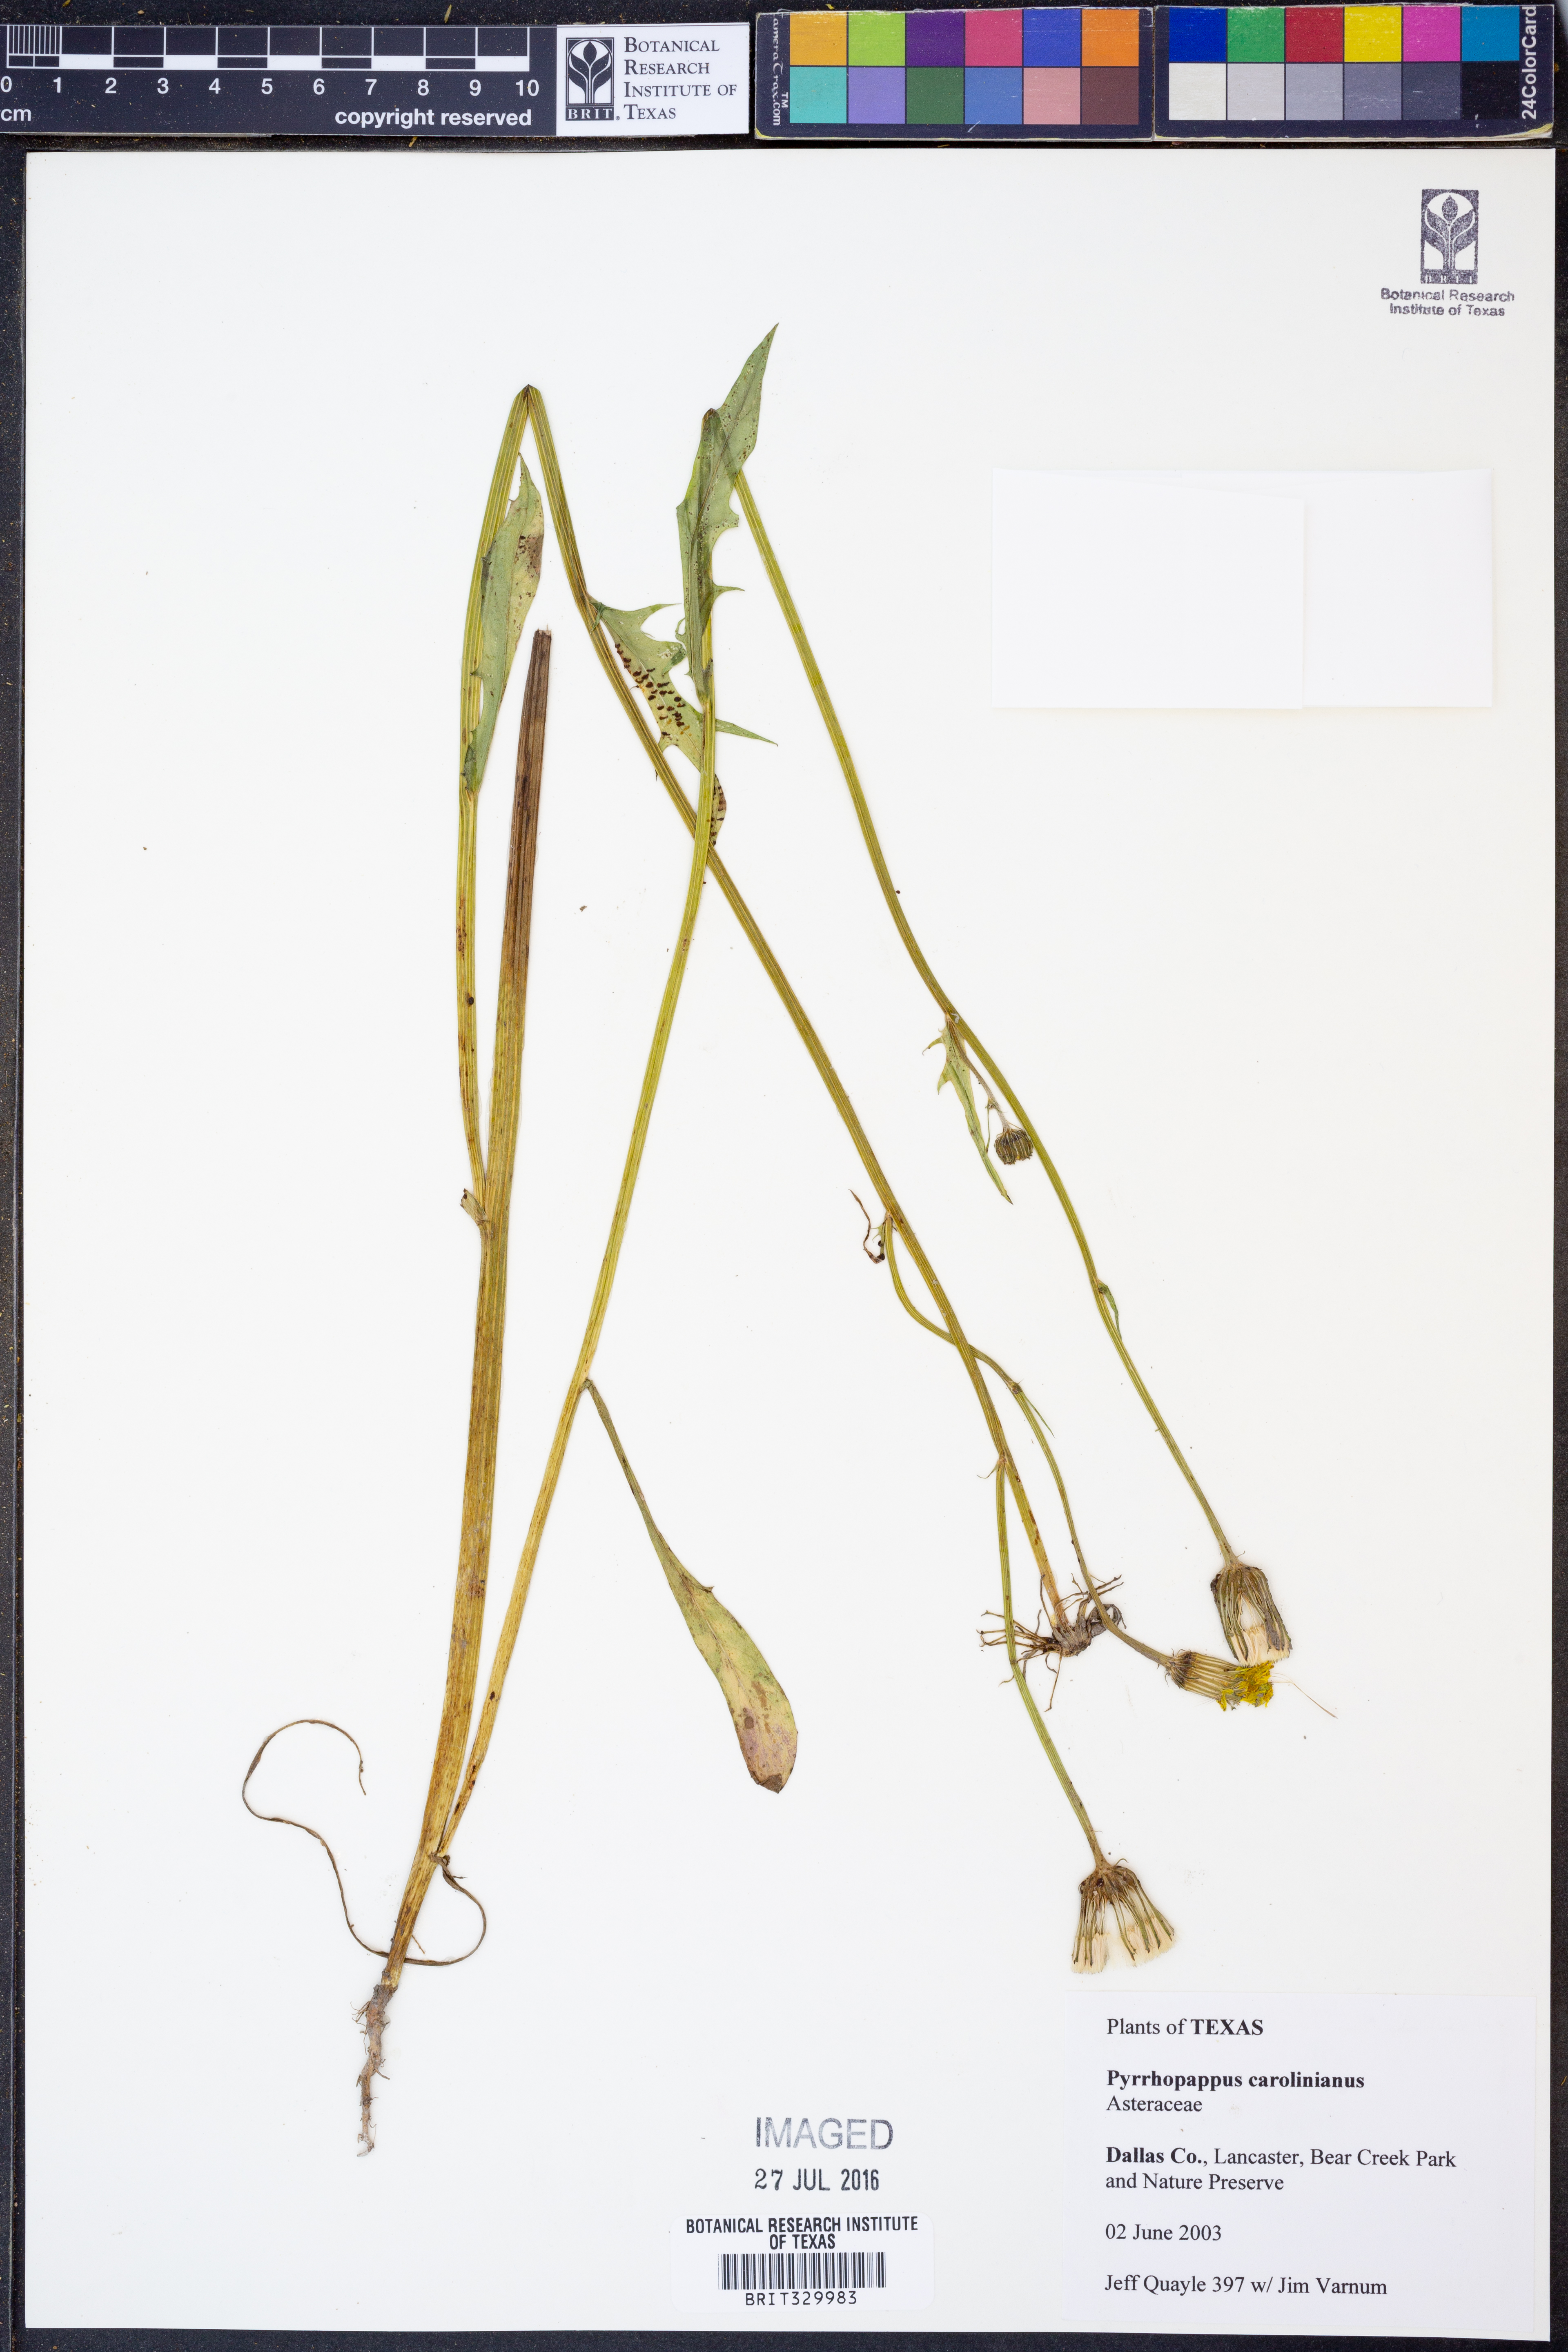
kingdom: Plantae
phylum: Tracheophyta
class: Magnoliopsida
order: Asterales
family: Asteraceae
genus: Pyrrhopappus
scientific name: Pyrrhopappus carolinianus
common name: Carolina desert-chicory
